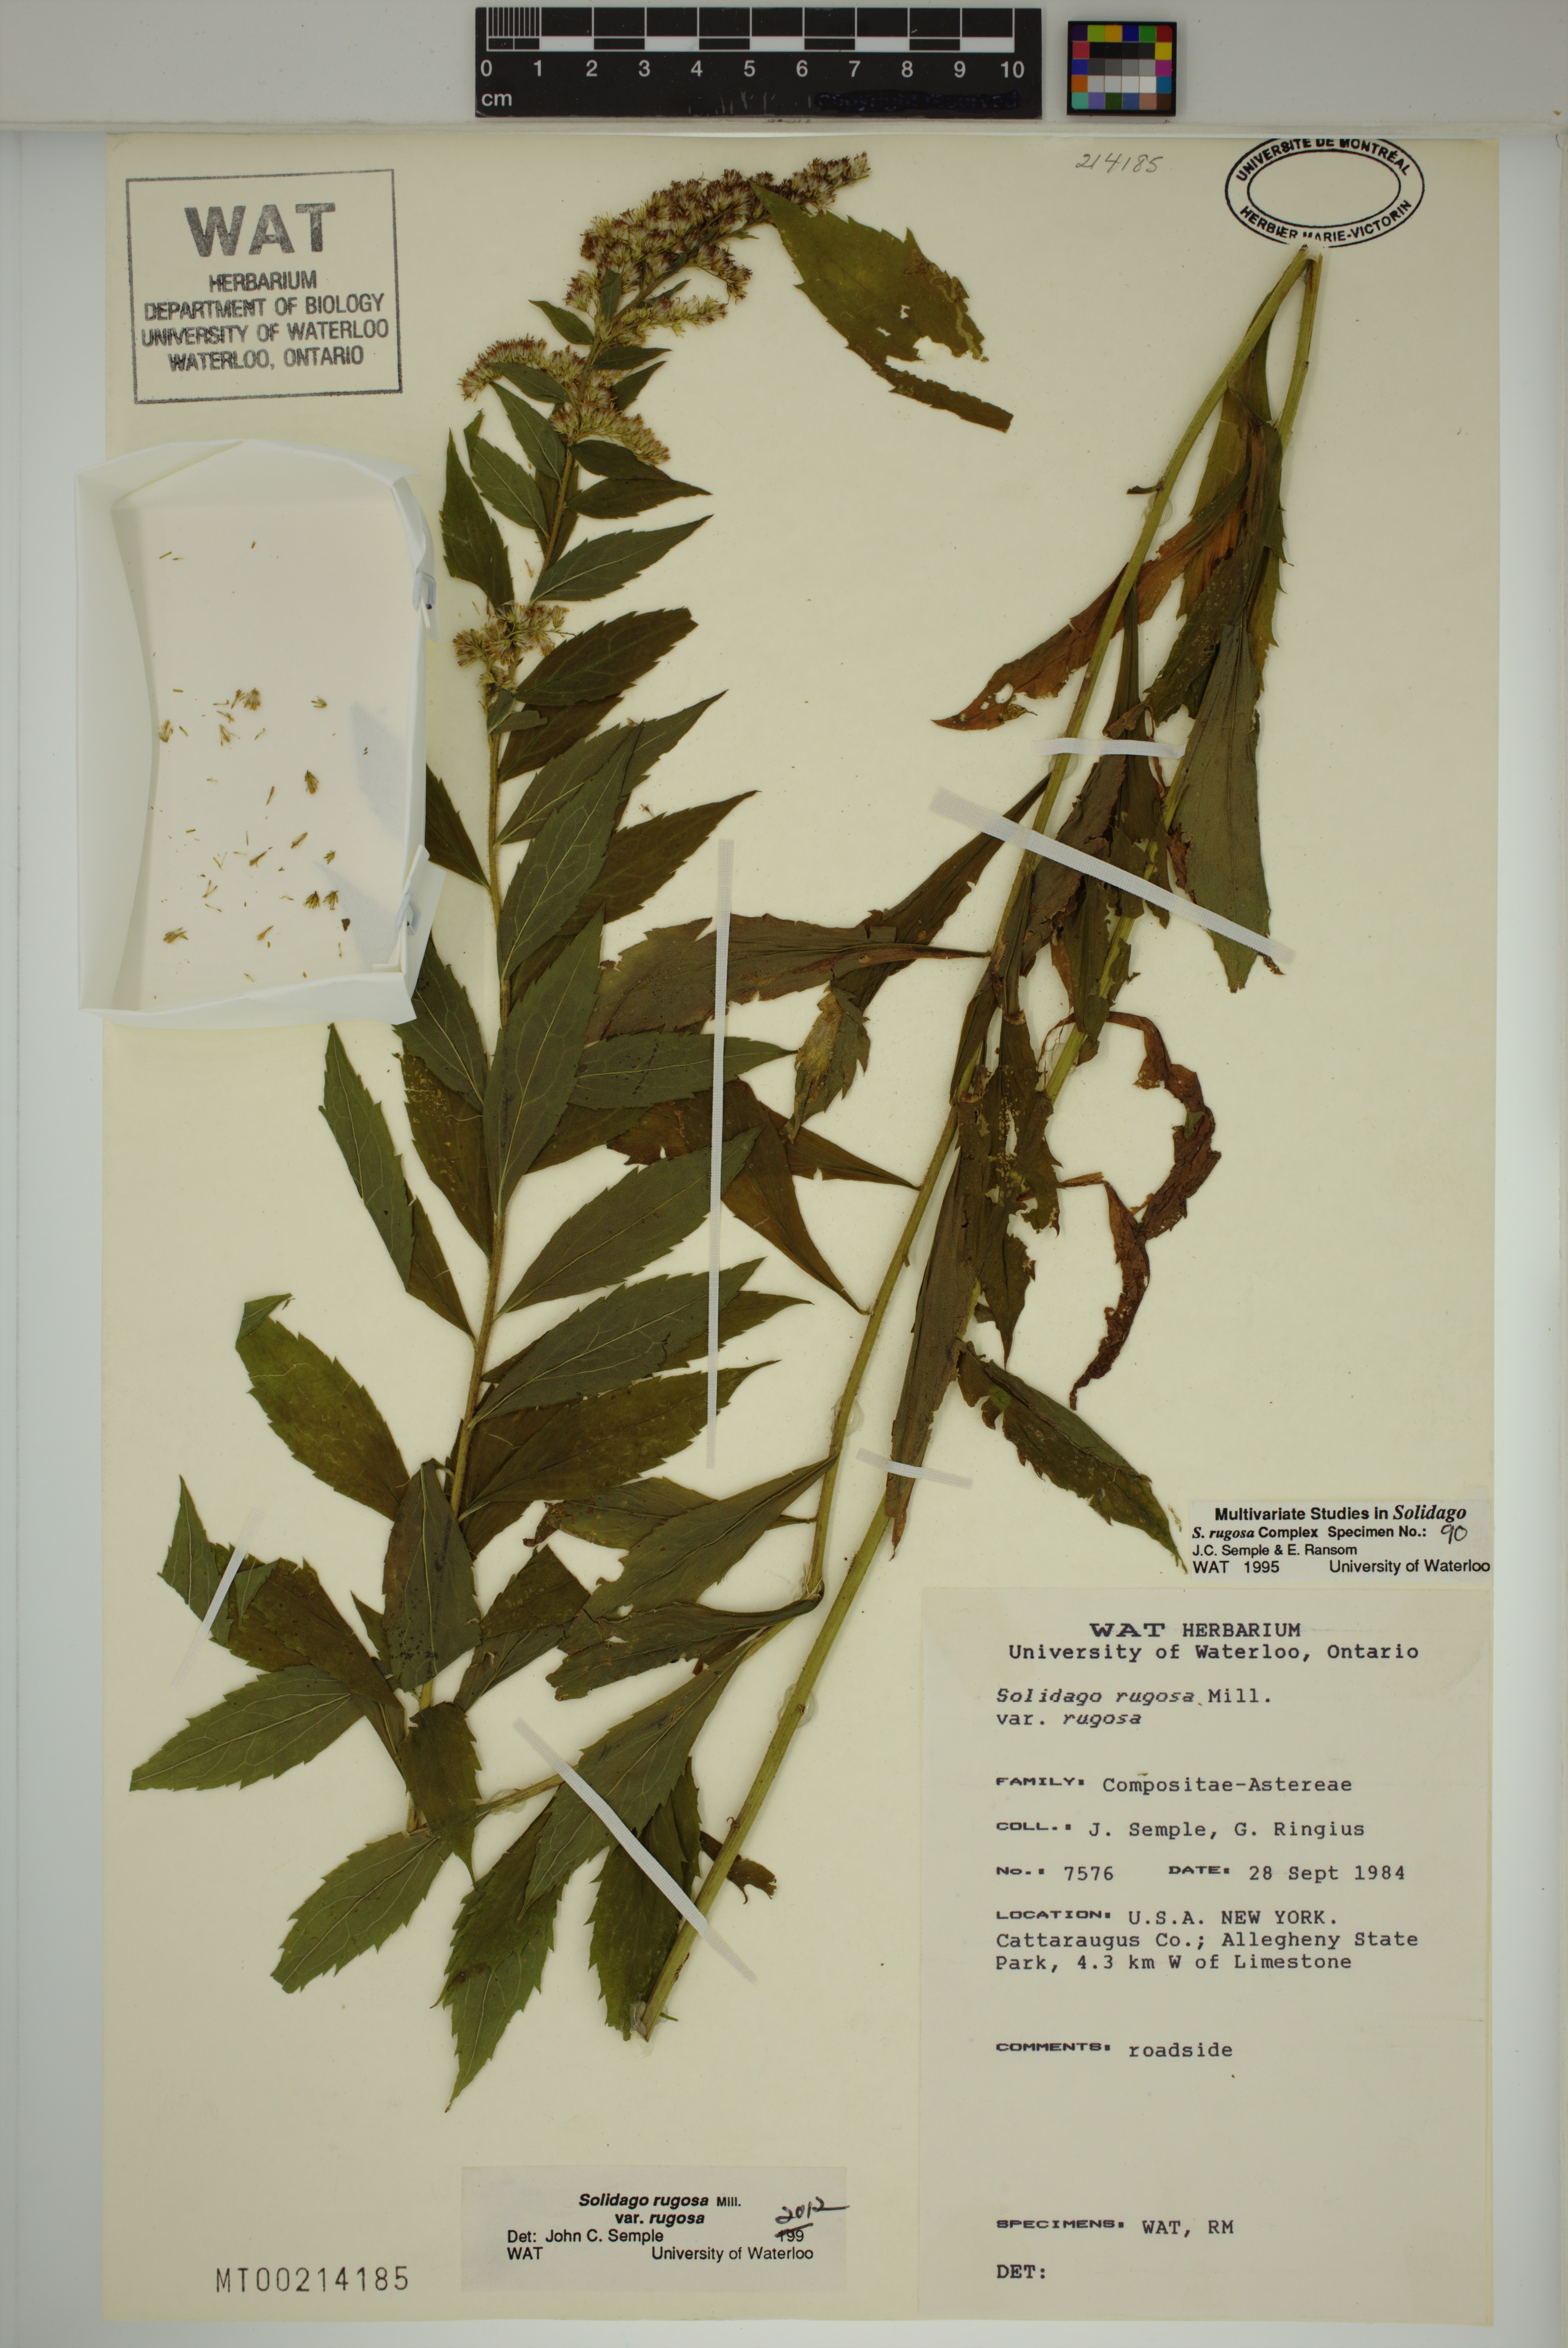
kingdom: Plantae
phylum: Tracheophyta
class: Magnoliopsida
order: Asterales
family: Asteraceae
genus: Solidago
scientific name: Solidago rugosa
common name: Rough-stemmed goldenrod
